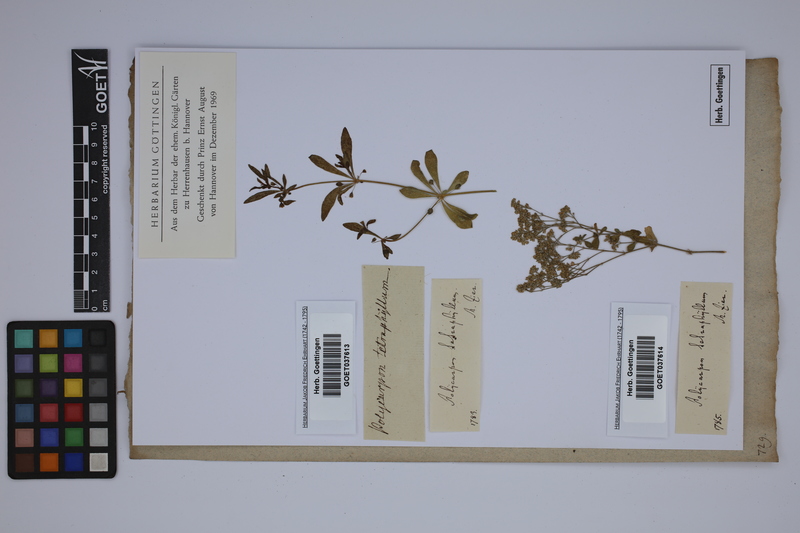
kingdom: Plantae
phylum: Tracheophyta
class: Magnoliopsida
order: Caryophyllales
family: Caryophyllaceae
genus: Polycarpon
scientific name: Polycarpon tetraphyllum
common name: Four-leaved all-seed
